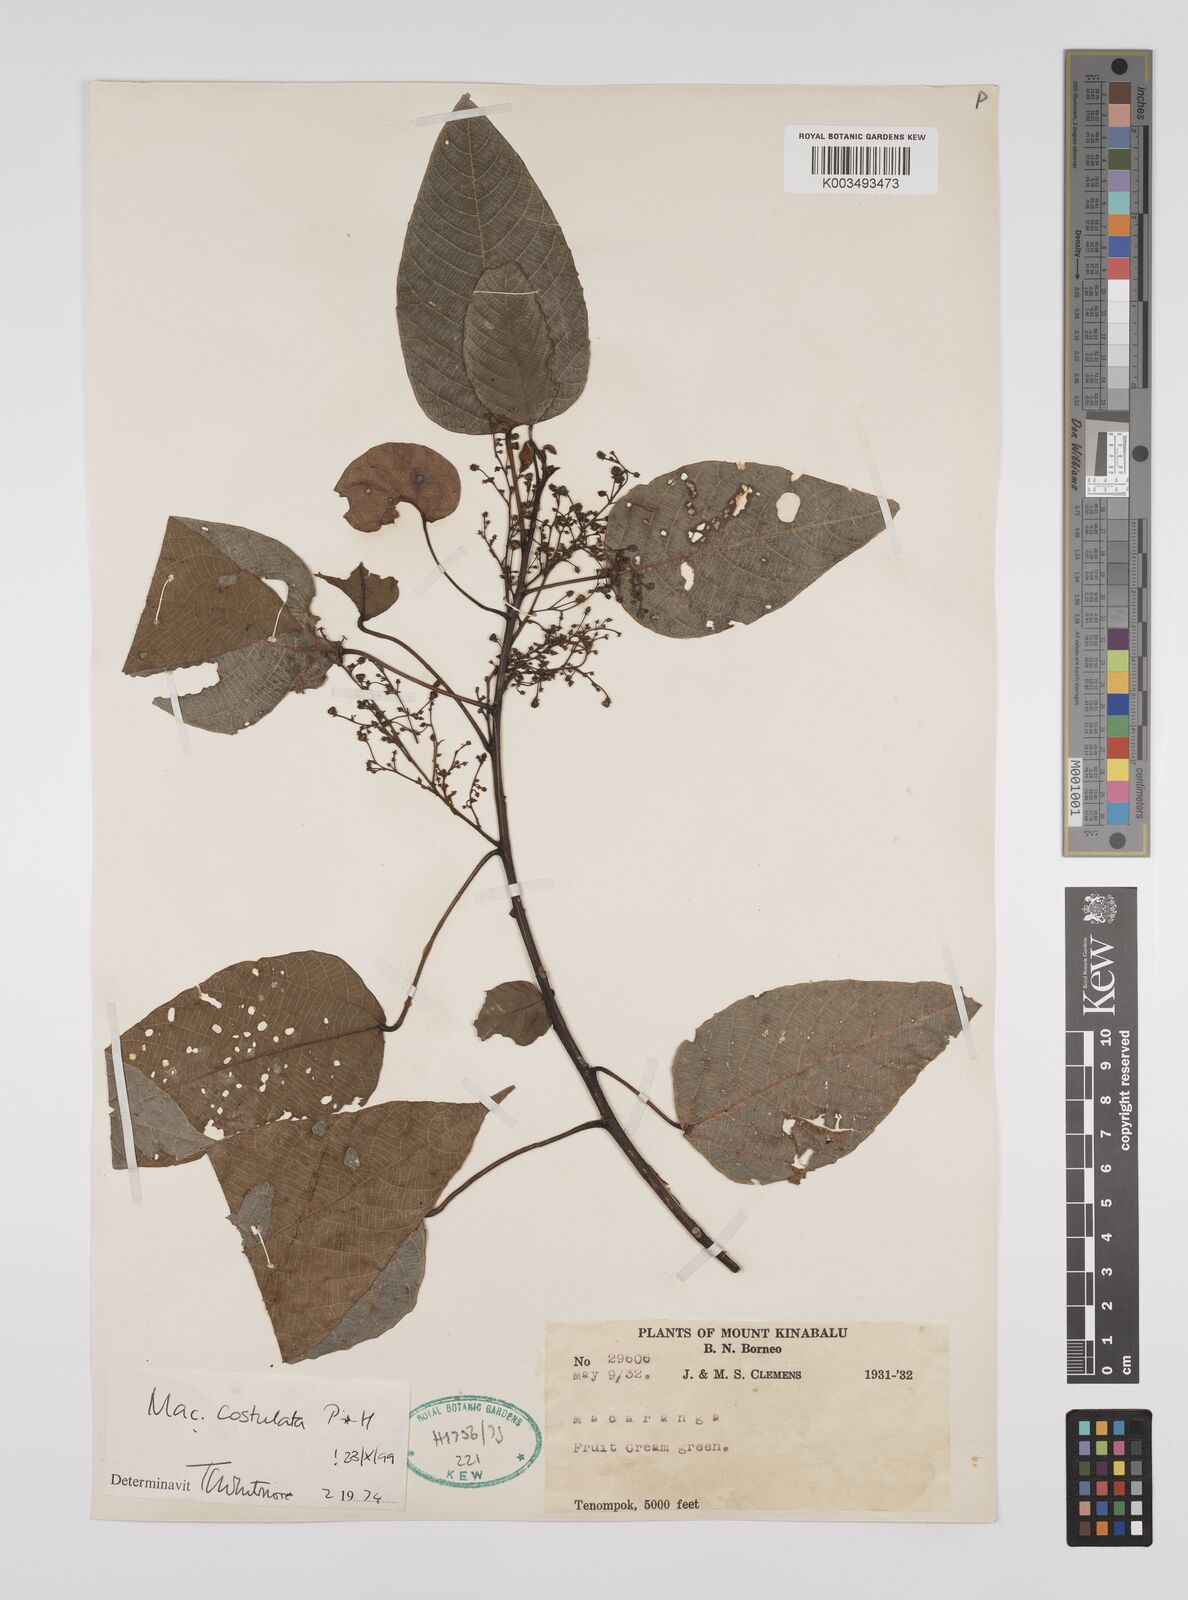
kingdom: Plantae
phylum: Tracheophyta
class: Magnoliopsida
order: Malpighiales
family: Euphorbiaceae
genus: Macaranga
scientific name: Macaranga costulata
